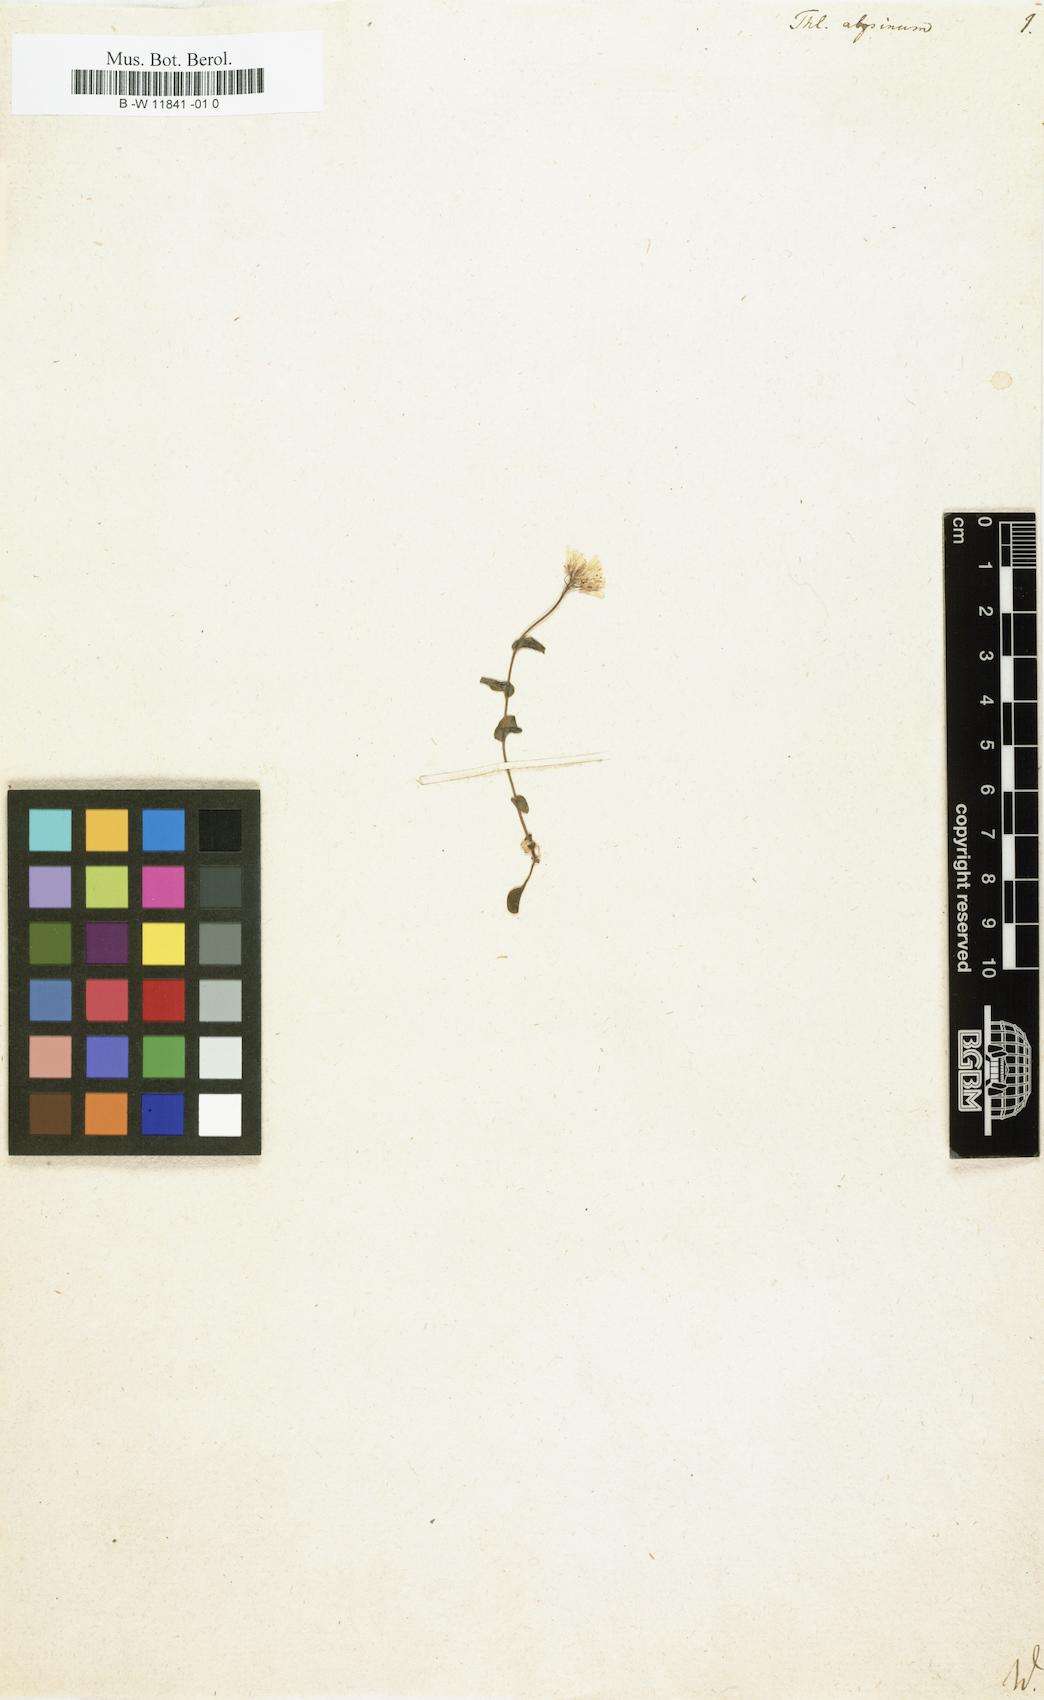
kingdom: Plantae
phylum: Tracheophyta
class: Magnoliopsida
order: Brassicales
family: Brassicaceae
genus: Noccaea
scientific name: Noccaea
